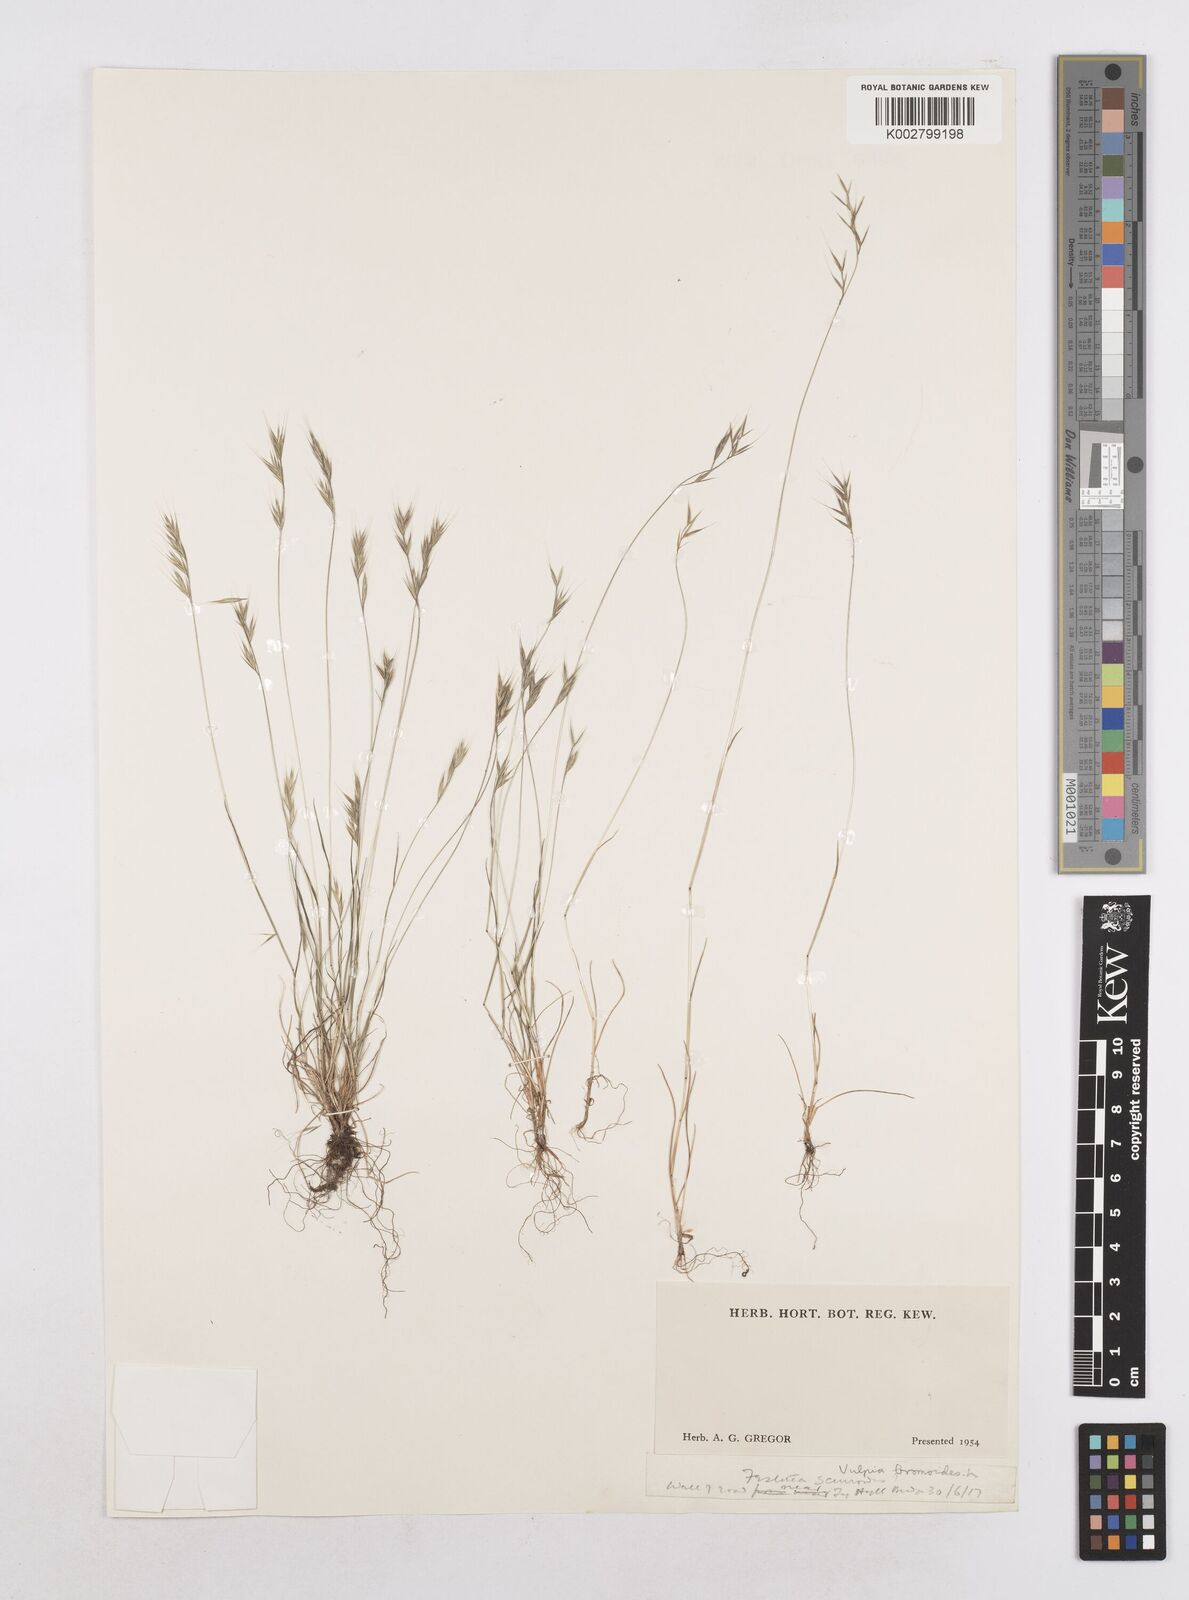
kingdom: Plantae
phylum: Tracheophyta
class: Liliopsida
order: Poales
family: Poaceae
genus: Festuca
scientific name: Festuca bromoides
